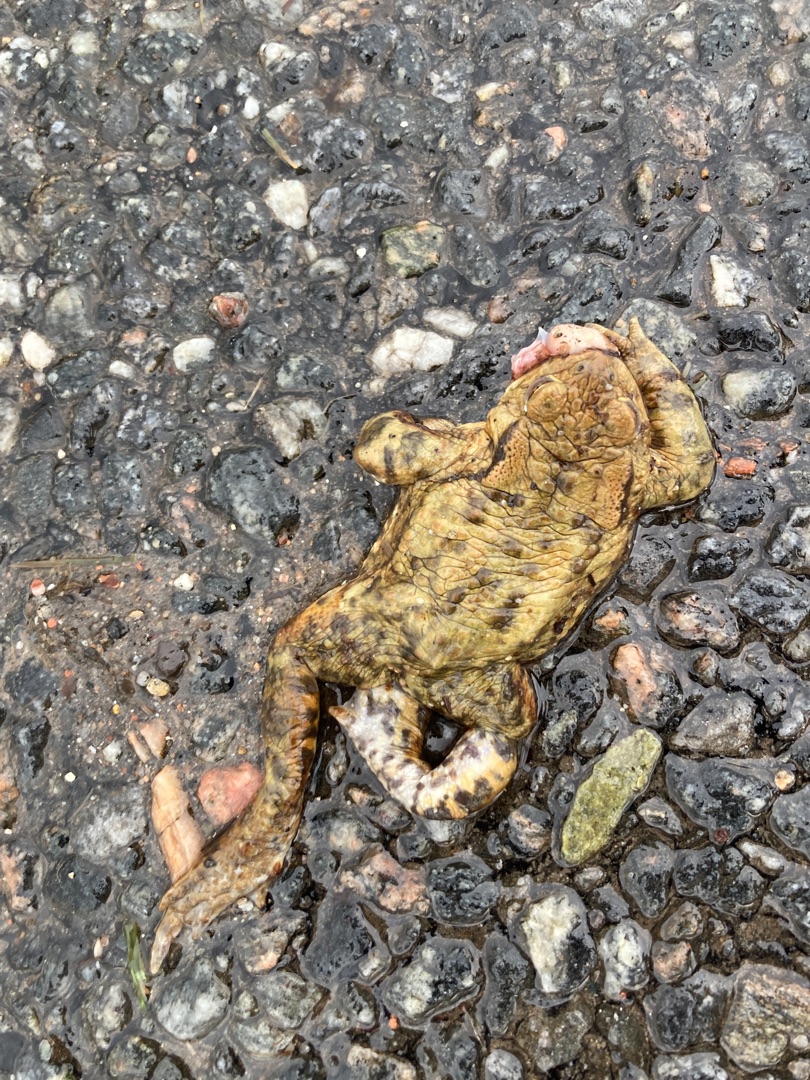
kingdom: Animalia
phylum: Chordata
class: Amphibia
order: Anura
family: Bufonidae
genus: Bufo
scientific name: Bufo bufo
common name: Skrubtudse
